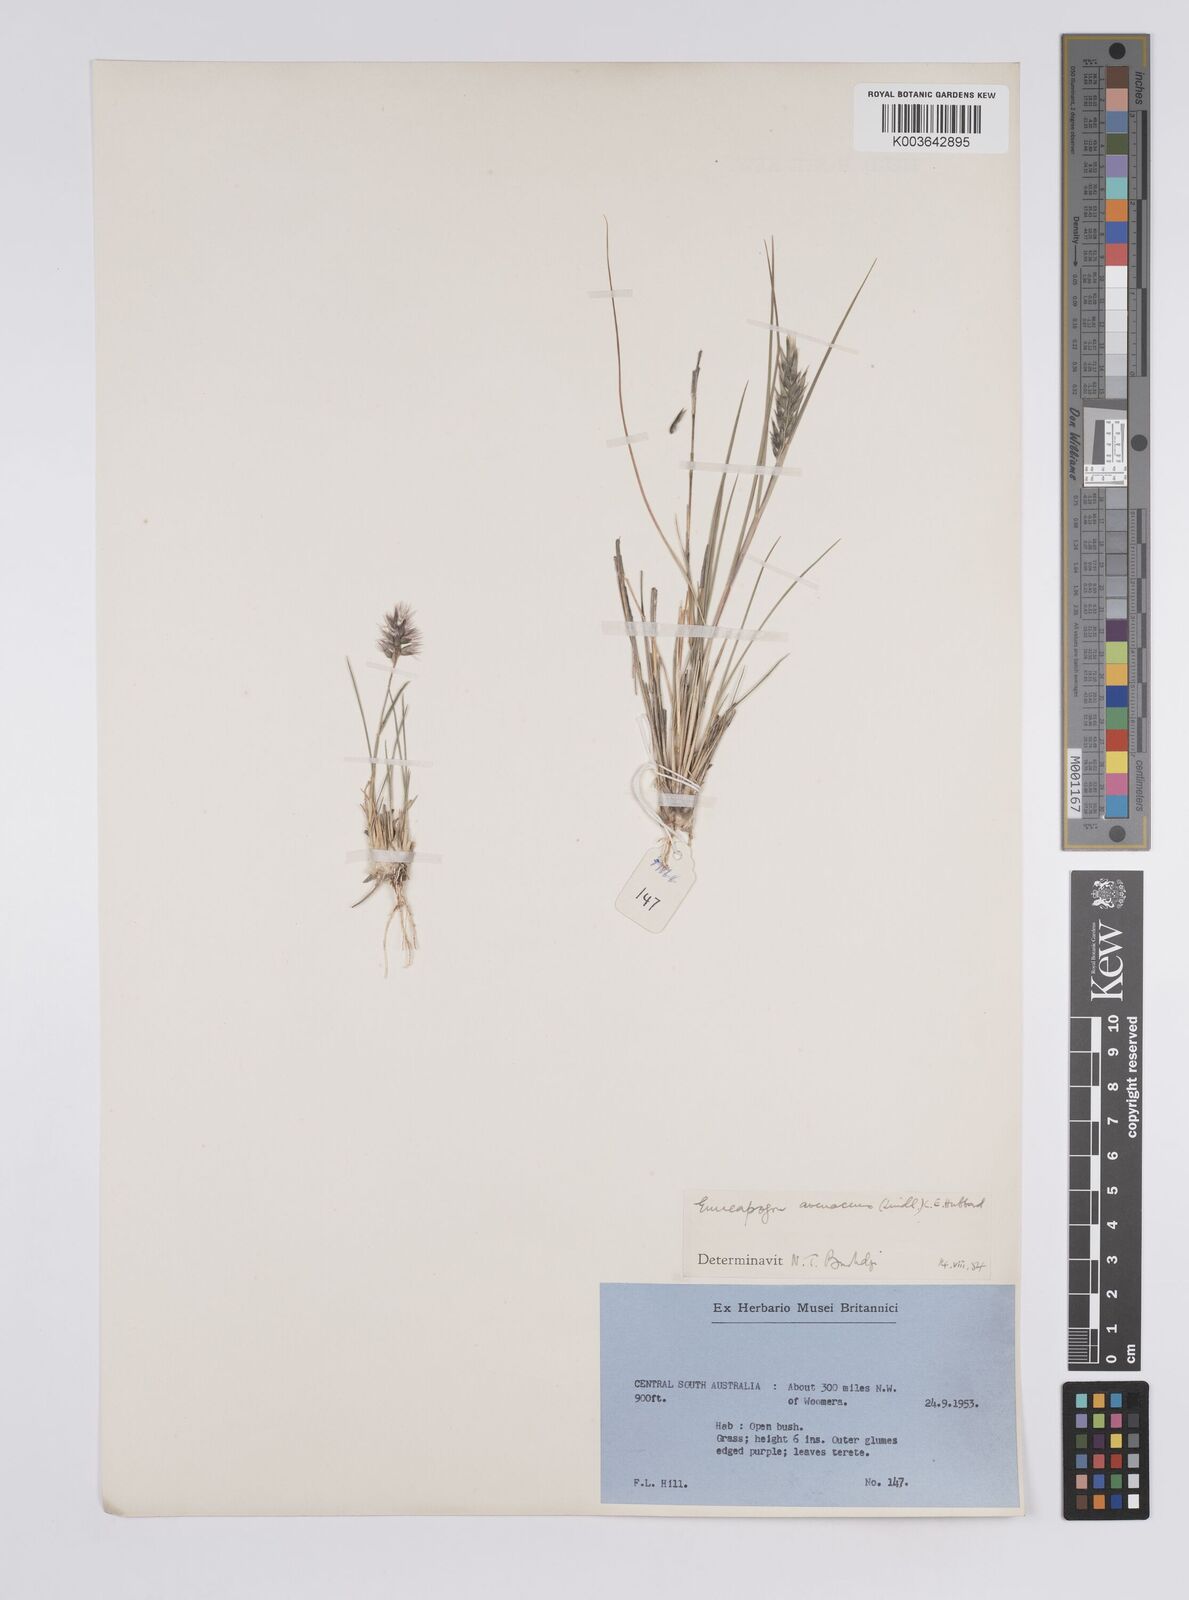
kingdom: Plantae
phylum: Tracheophyta
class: Liliopsida
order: Poales
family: Poaceae
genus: Enneapogon
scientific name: Enneapogon avenaceus
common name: Hairy oat grass
